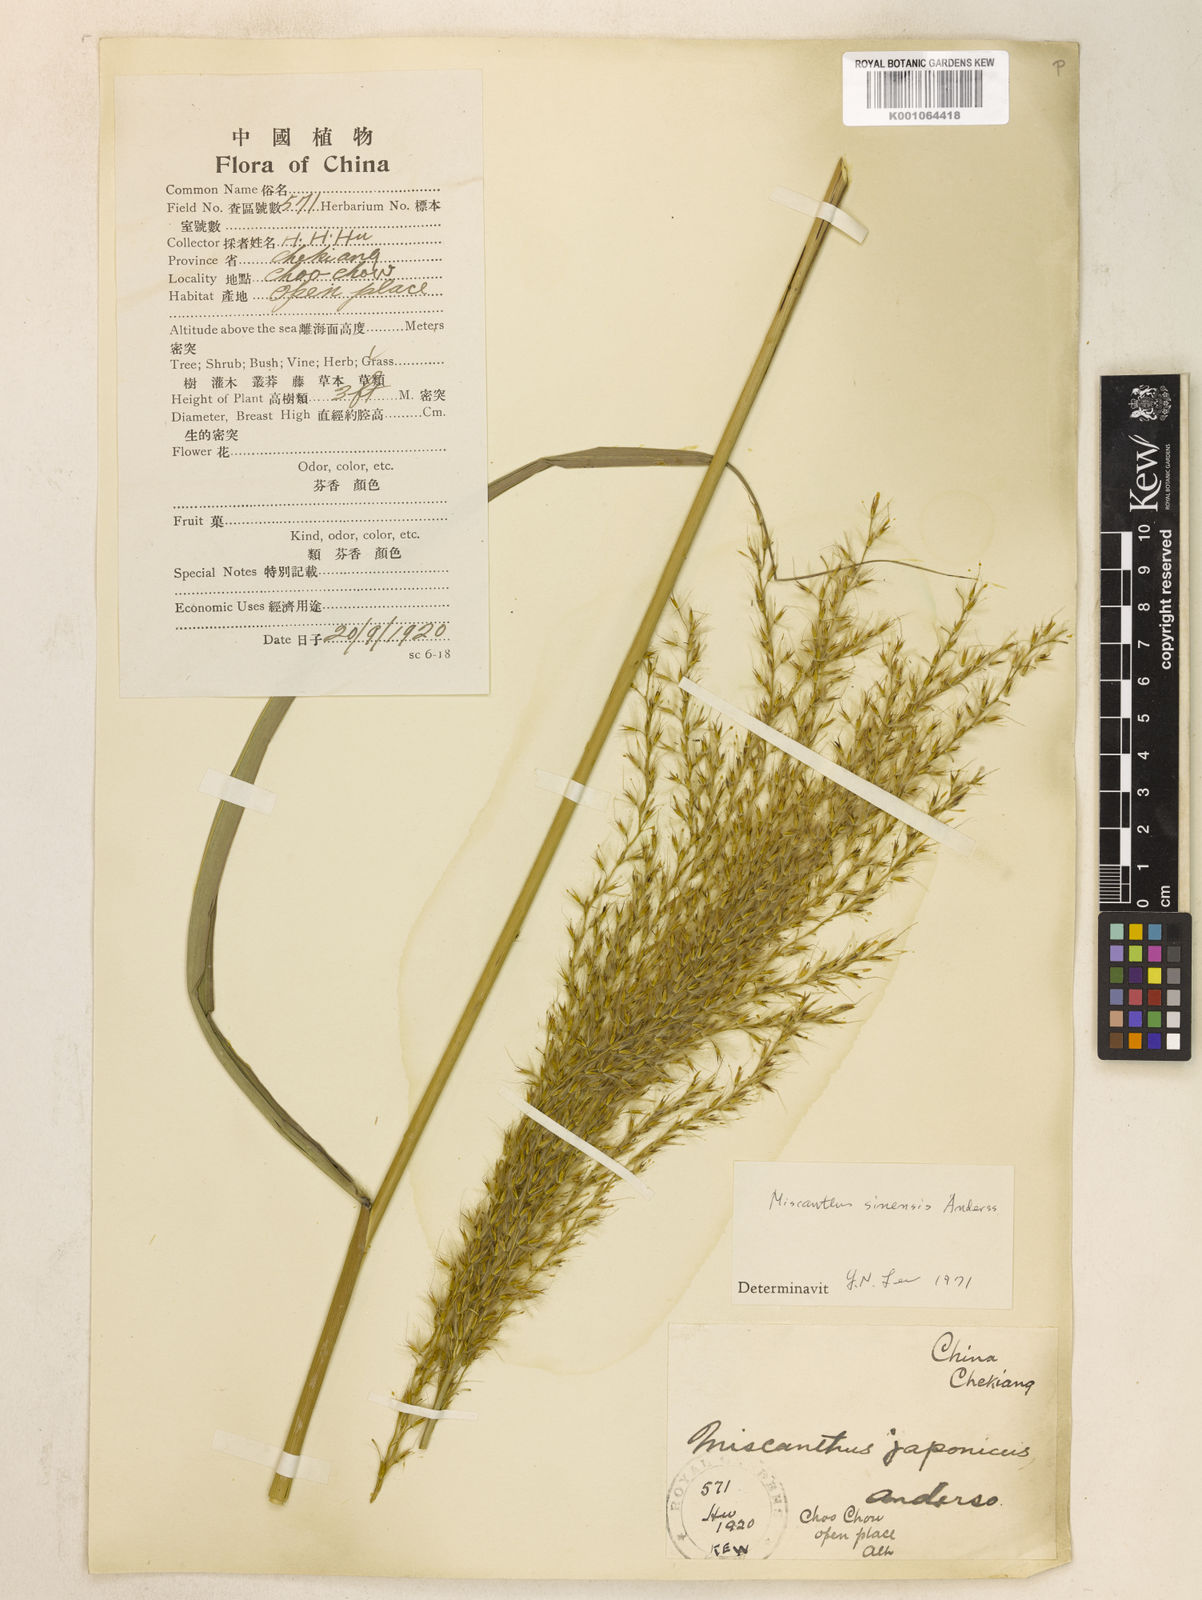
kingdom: Plantae
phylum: Tracheophyta
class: Liliopsida
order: Poales
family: Poaceae
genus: Miscanthus
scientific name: Miscanthus sinensis
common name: Chinese silvergrass
